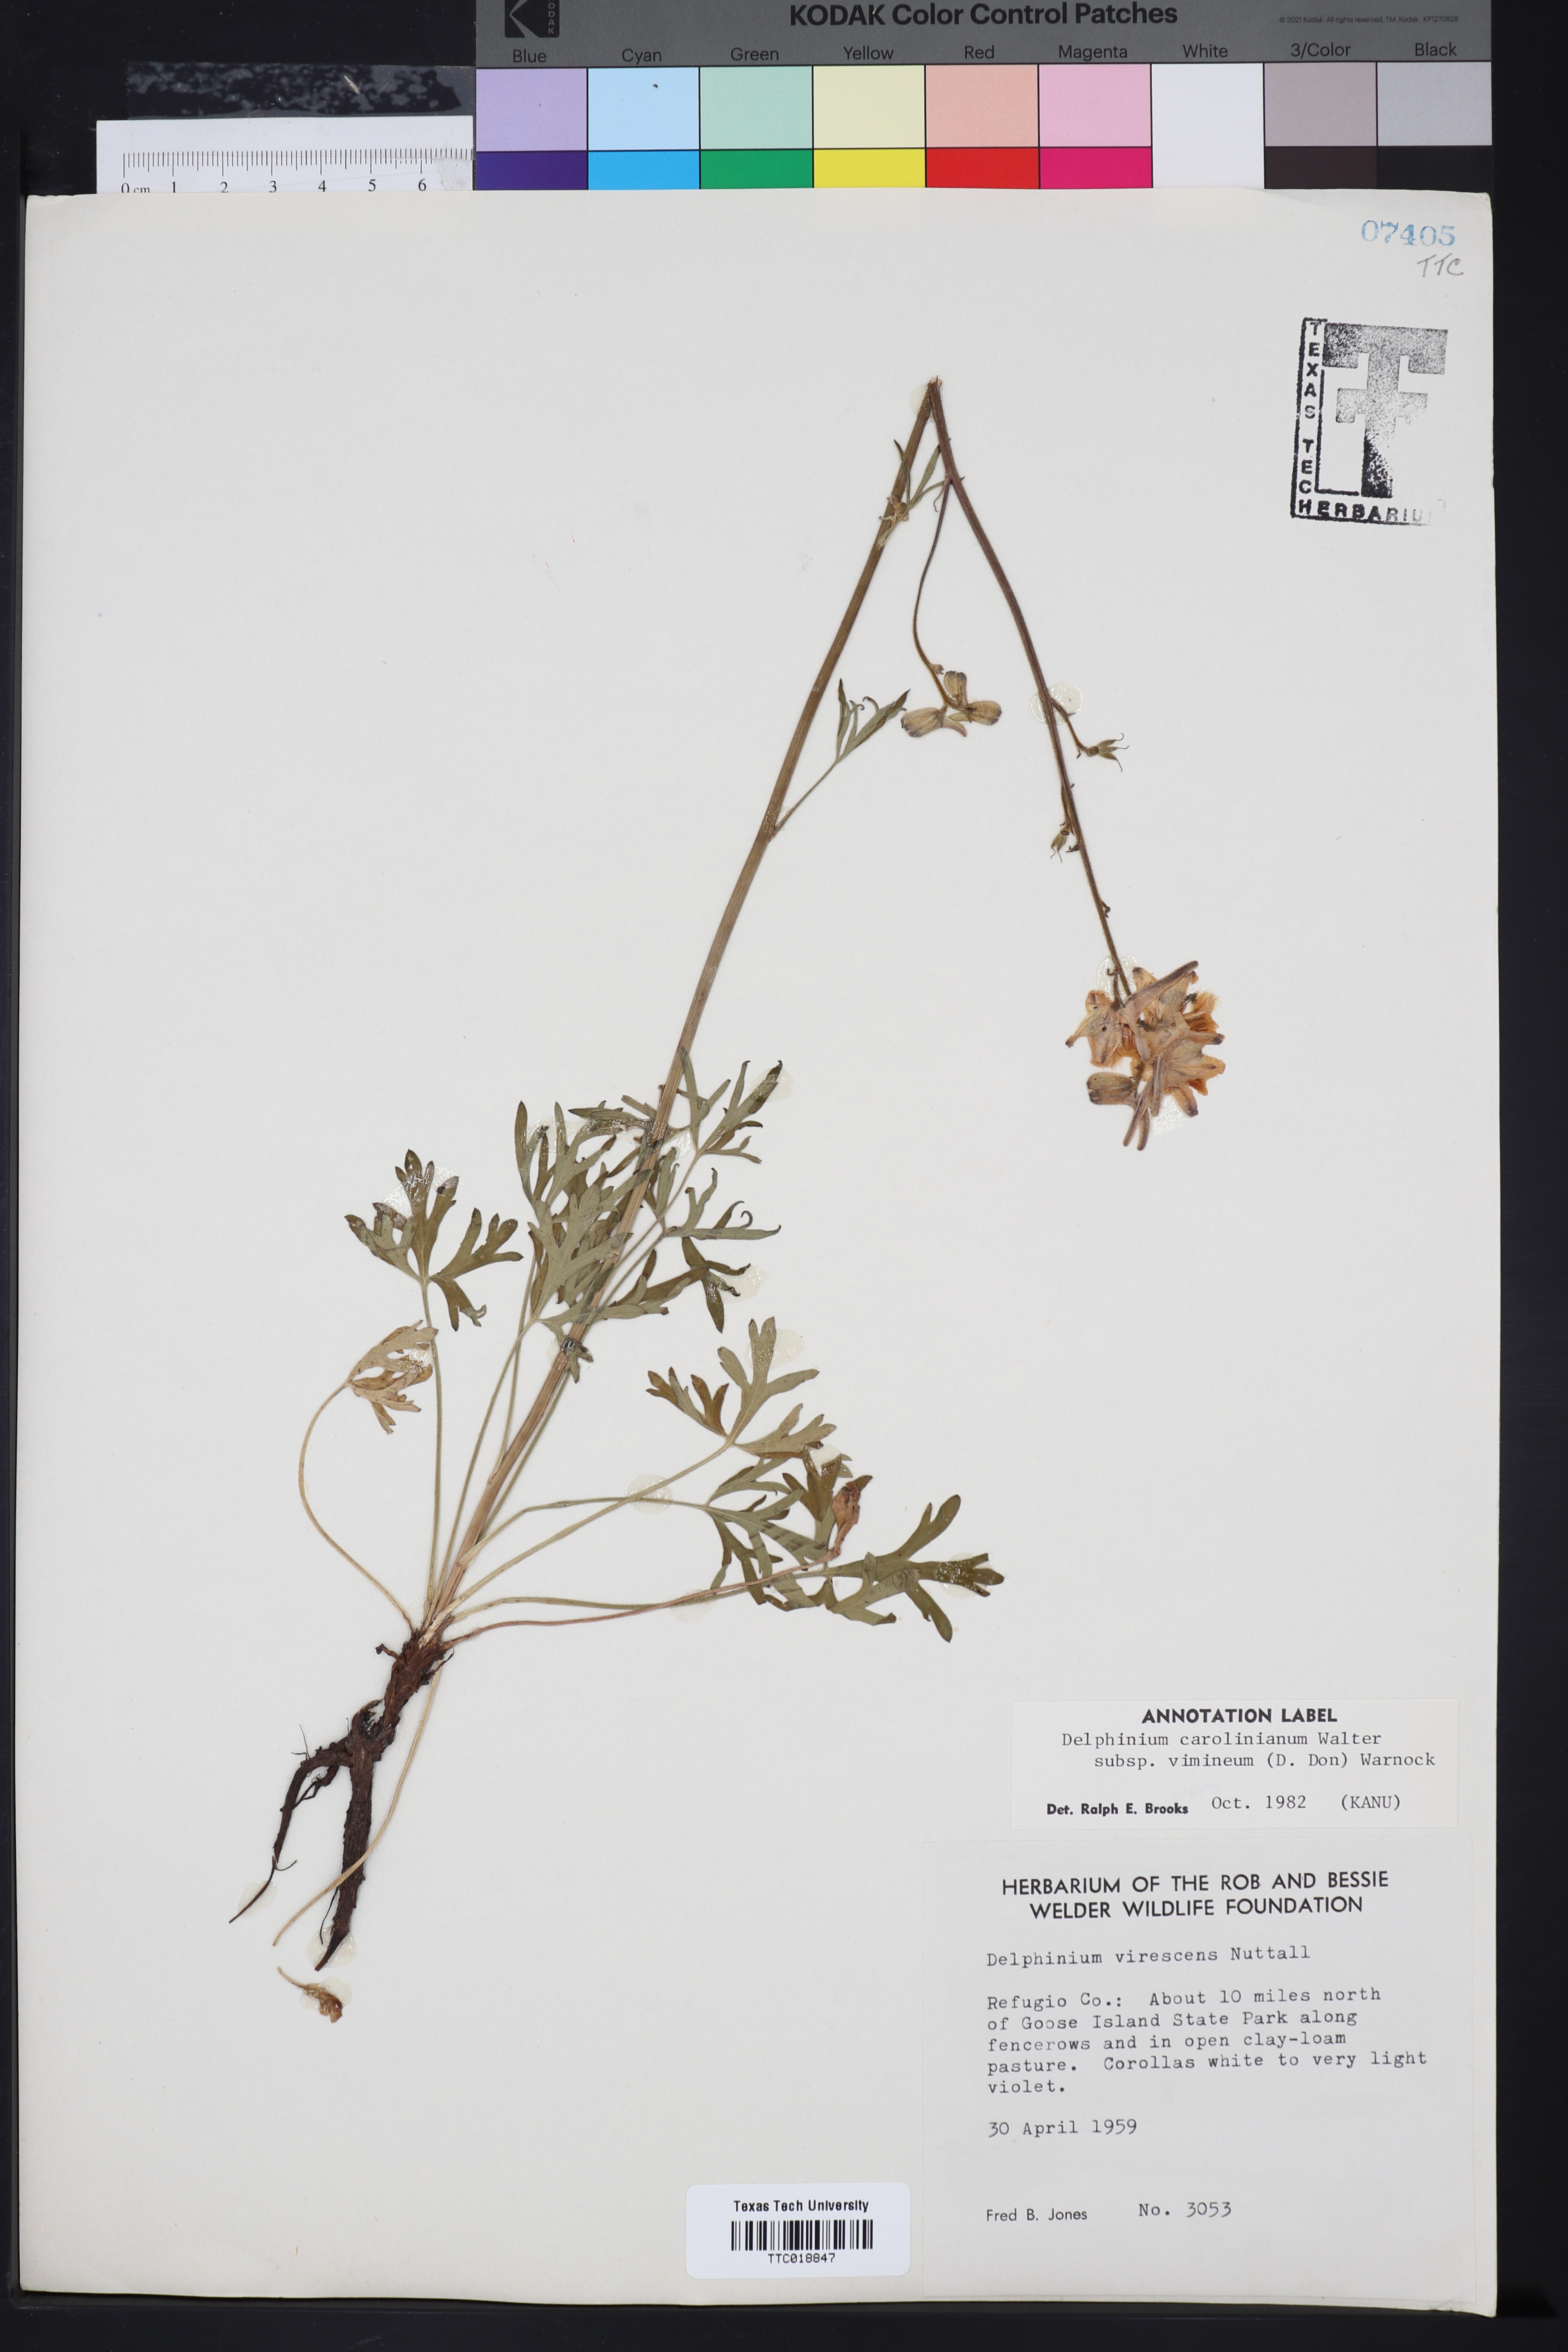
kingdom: Plantae
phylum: Tracheophyta
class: Magnoliopsida
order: Ranunculales
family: Ranunculaceae
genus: Delphinium
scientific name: Delphinium carolinianum
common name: Carolina larkspur
